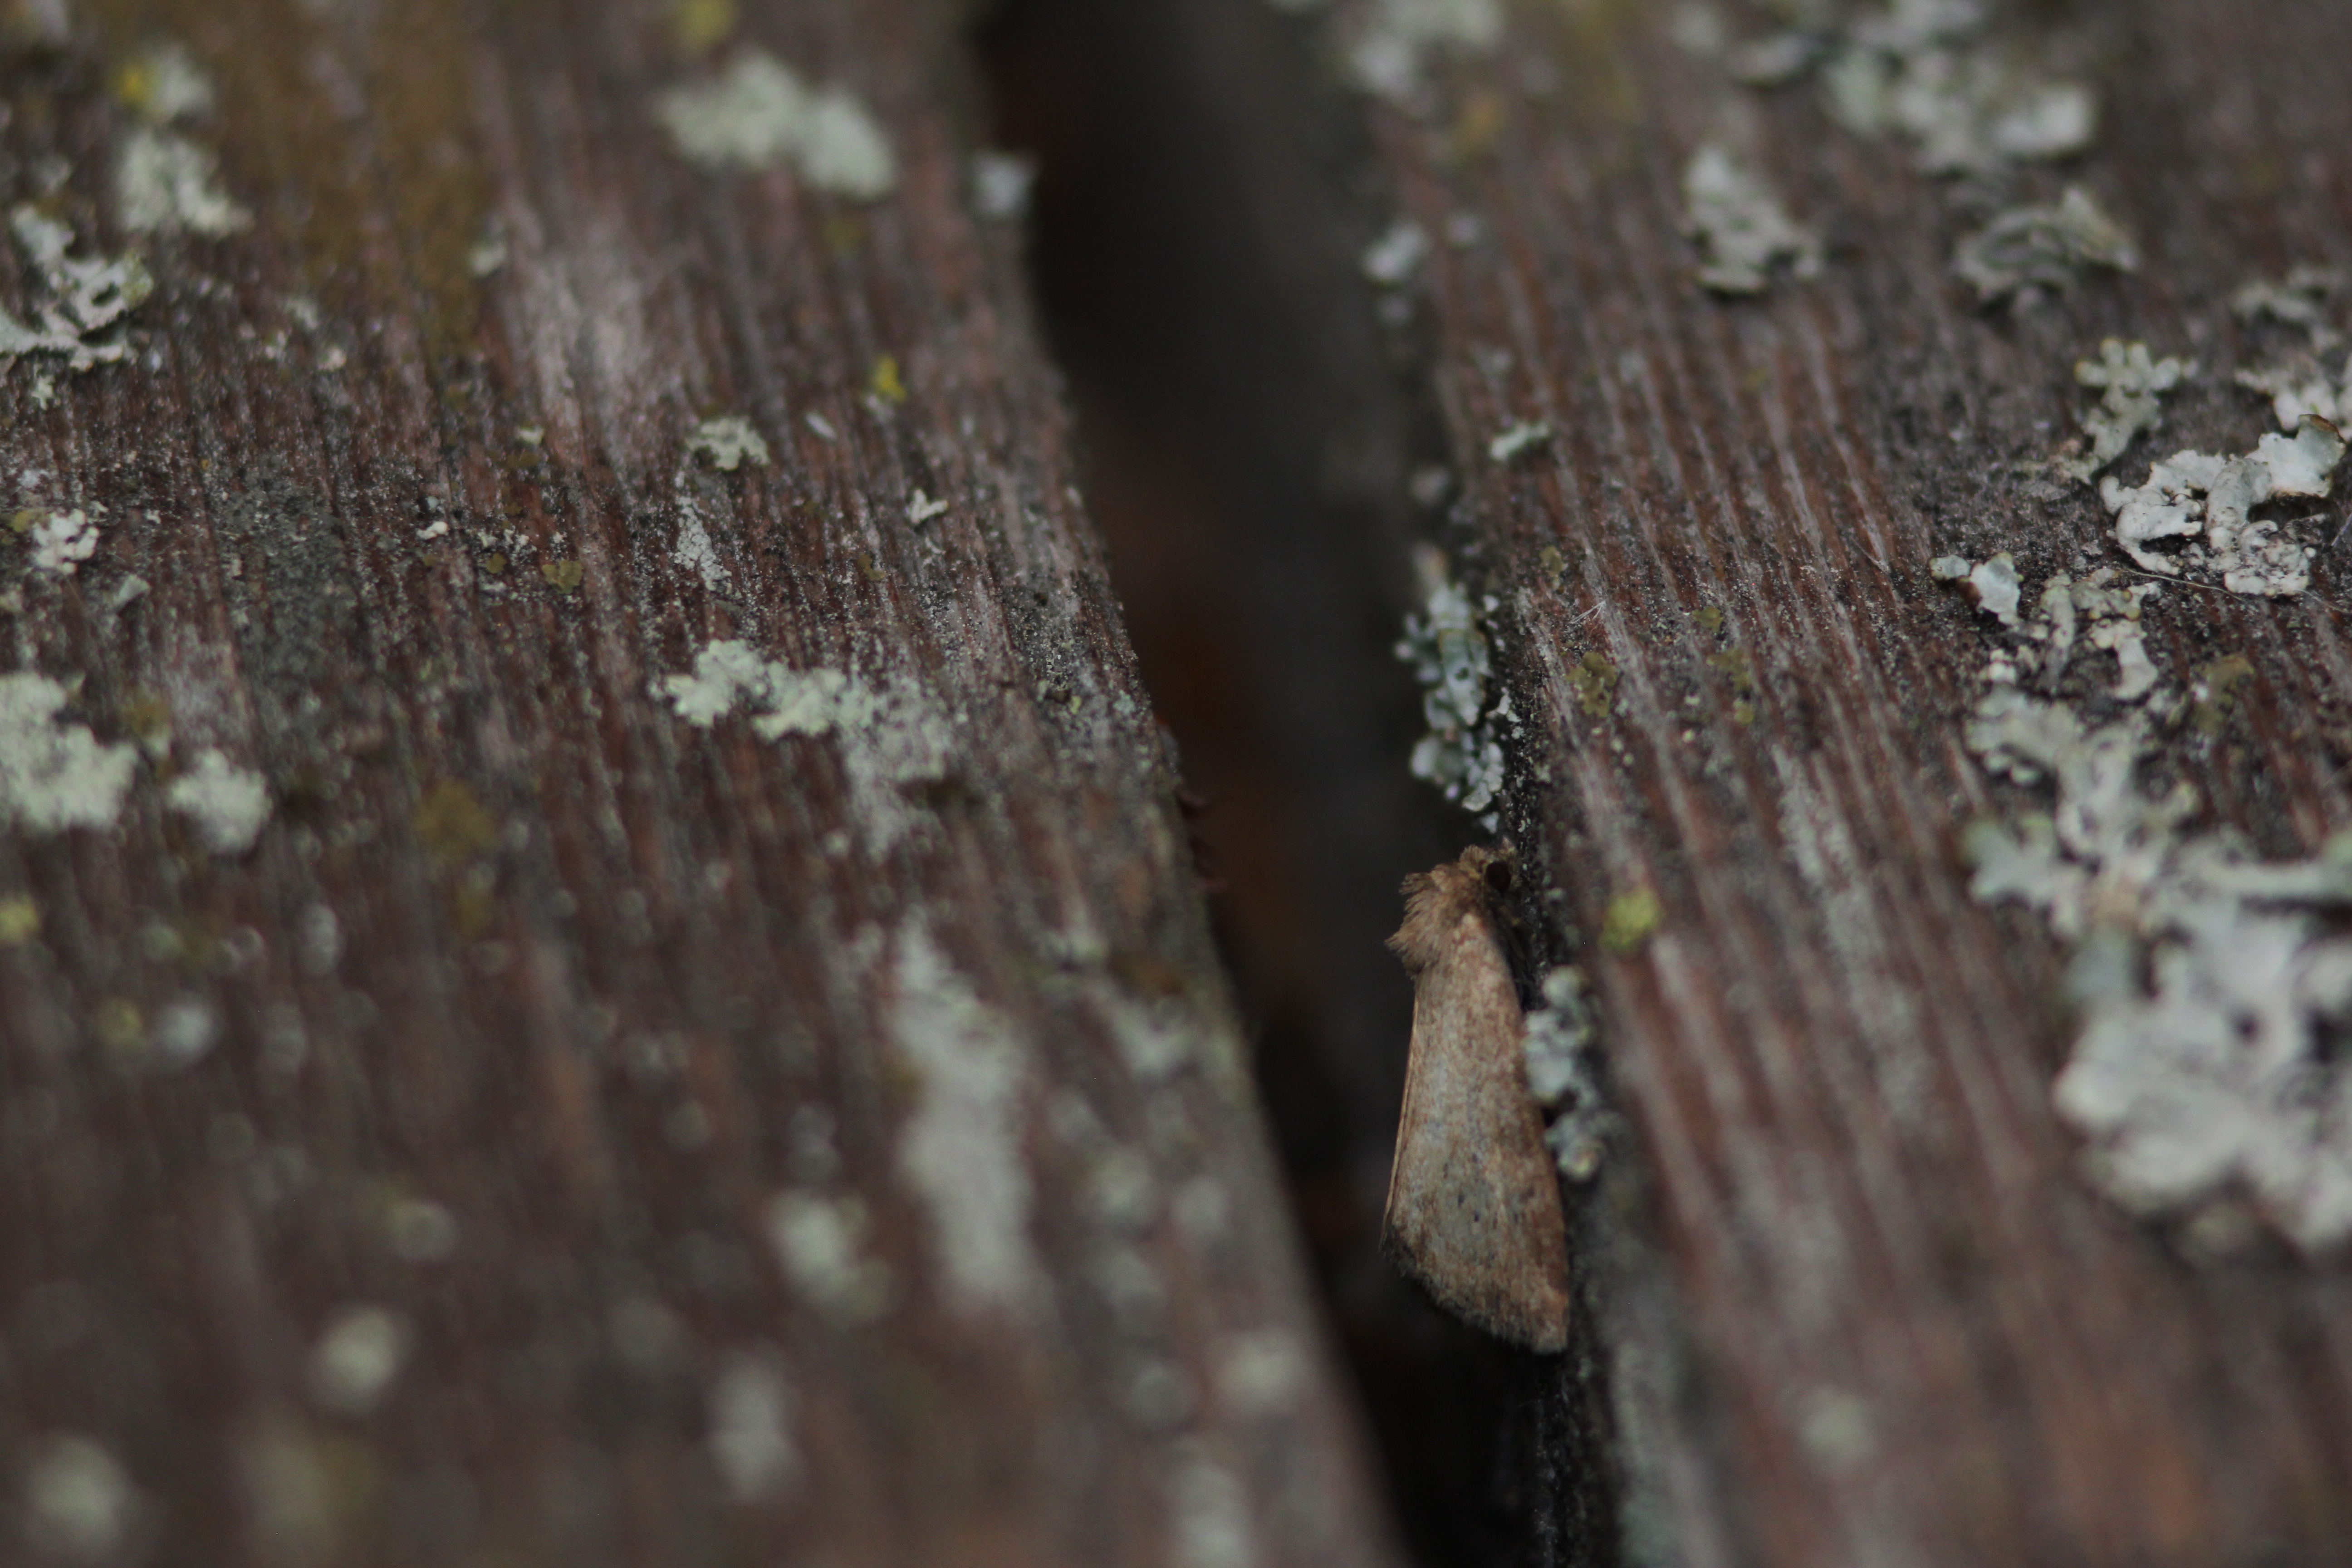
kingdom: Animalia
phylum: Arthropoda
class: Insecta
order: Lepidoptera
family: Noctuidae
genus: Photedes
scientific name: Photedes minima
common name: Small dotted buff
